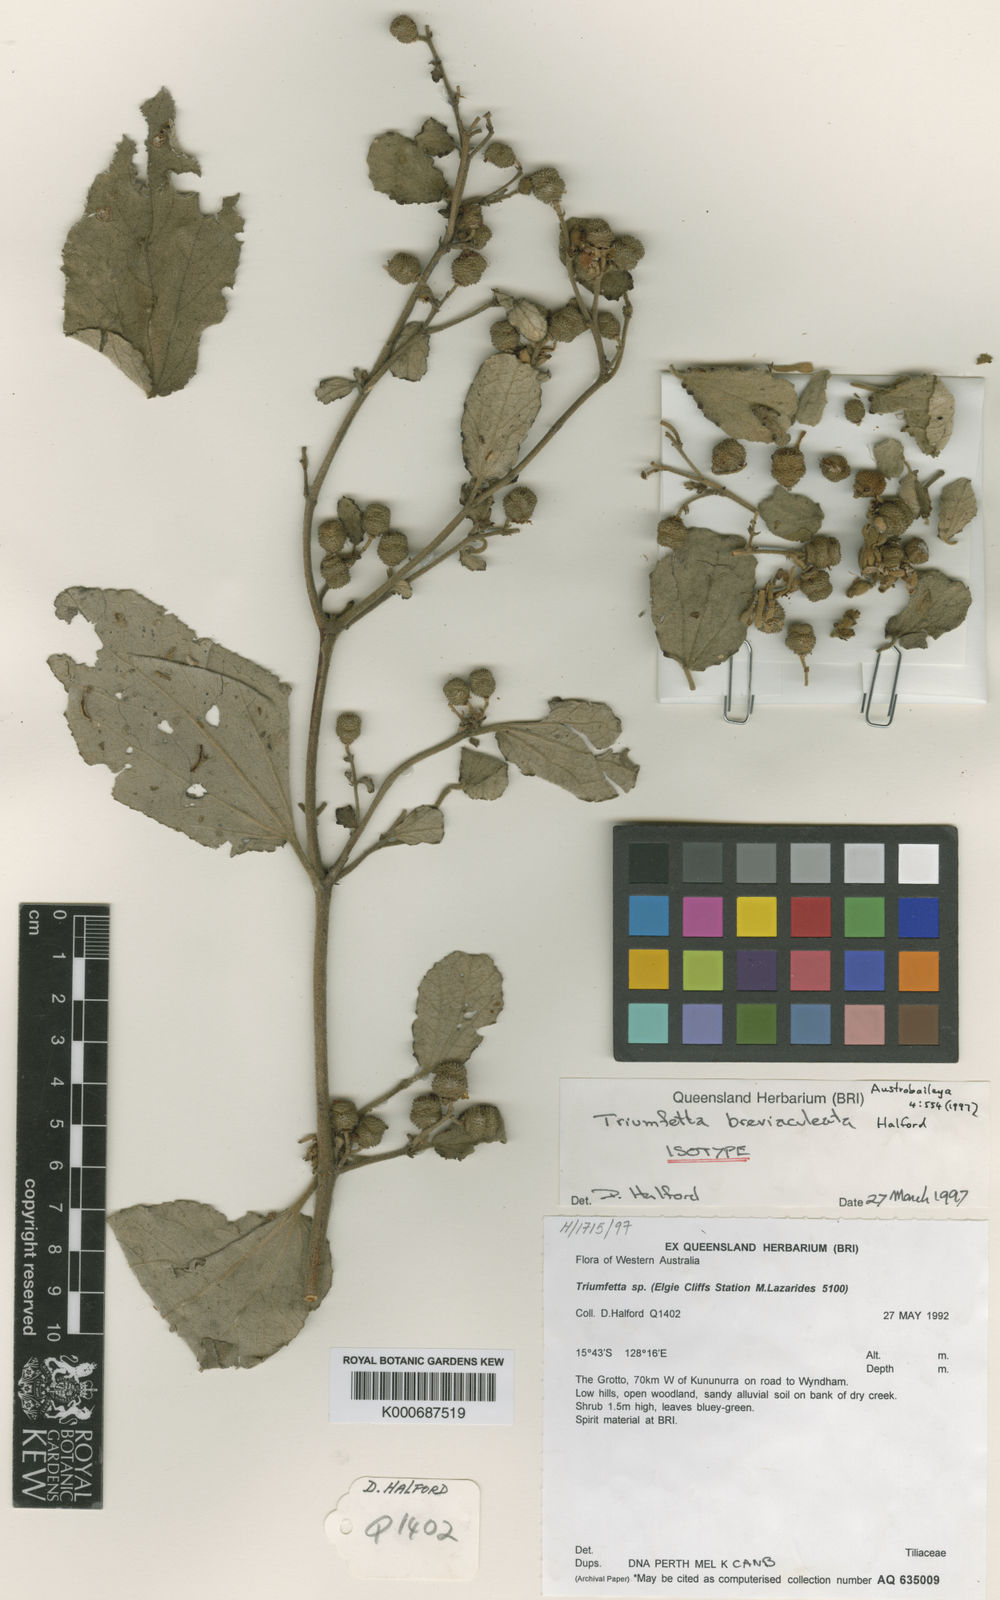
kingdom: Plantae
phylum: Tracheophyta
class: Magnoliopsida
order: Malvales
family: Malvaceae
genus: Triumfetta
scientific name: Triumfetta breviaculeata
